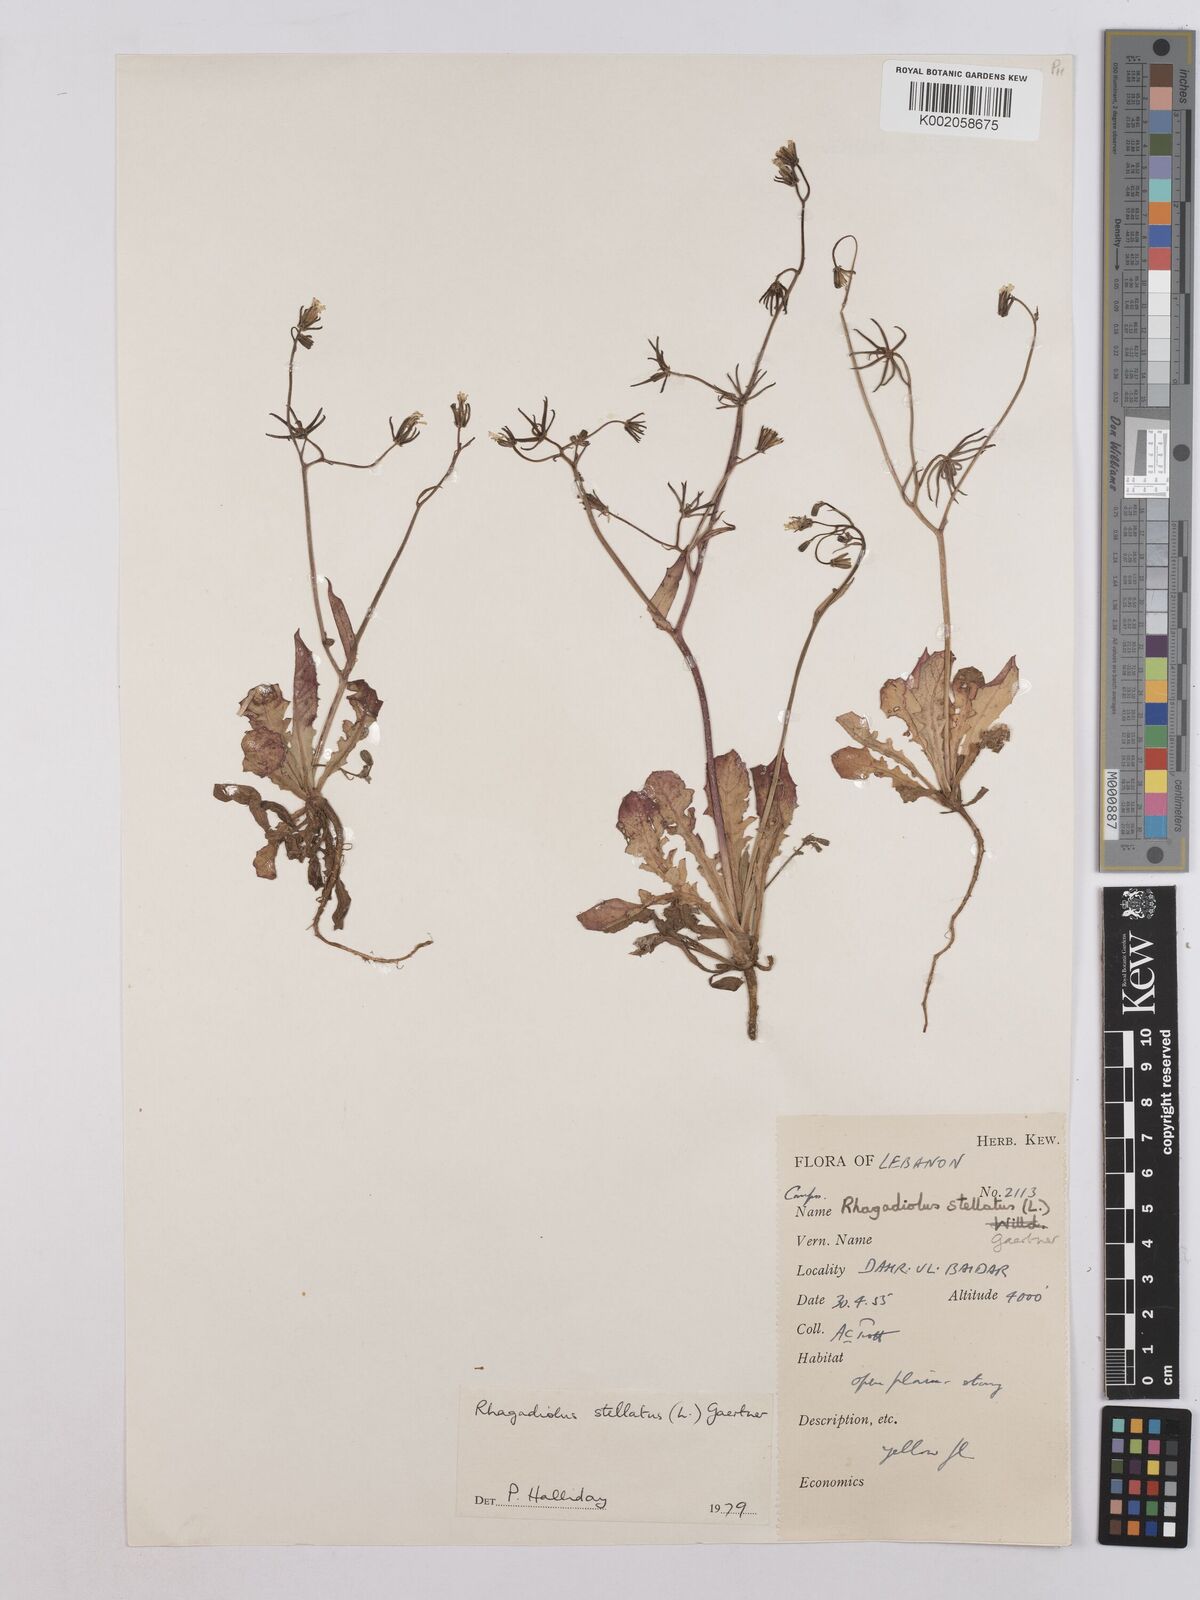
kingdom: Plantae
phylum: Tracheophyta
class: Magnoliopsida
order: Asterales
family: Asteraceae
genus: Rhagadiolus
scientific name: Rhagadiolus stellatus
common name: Star hawkbit
